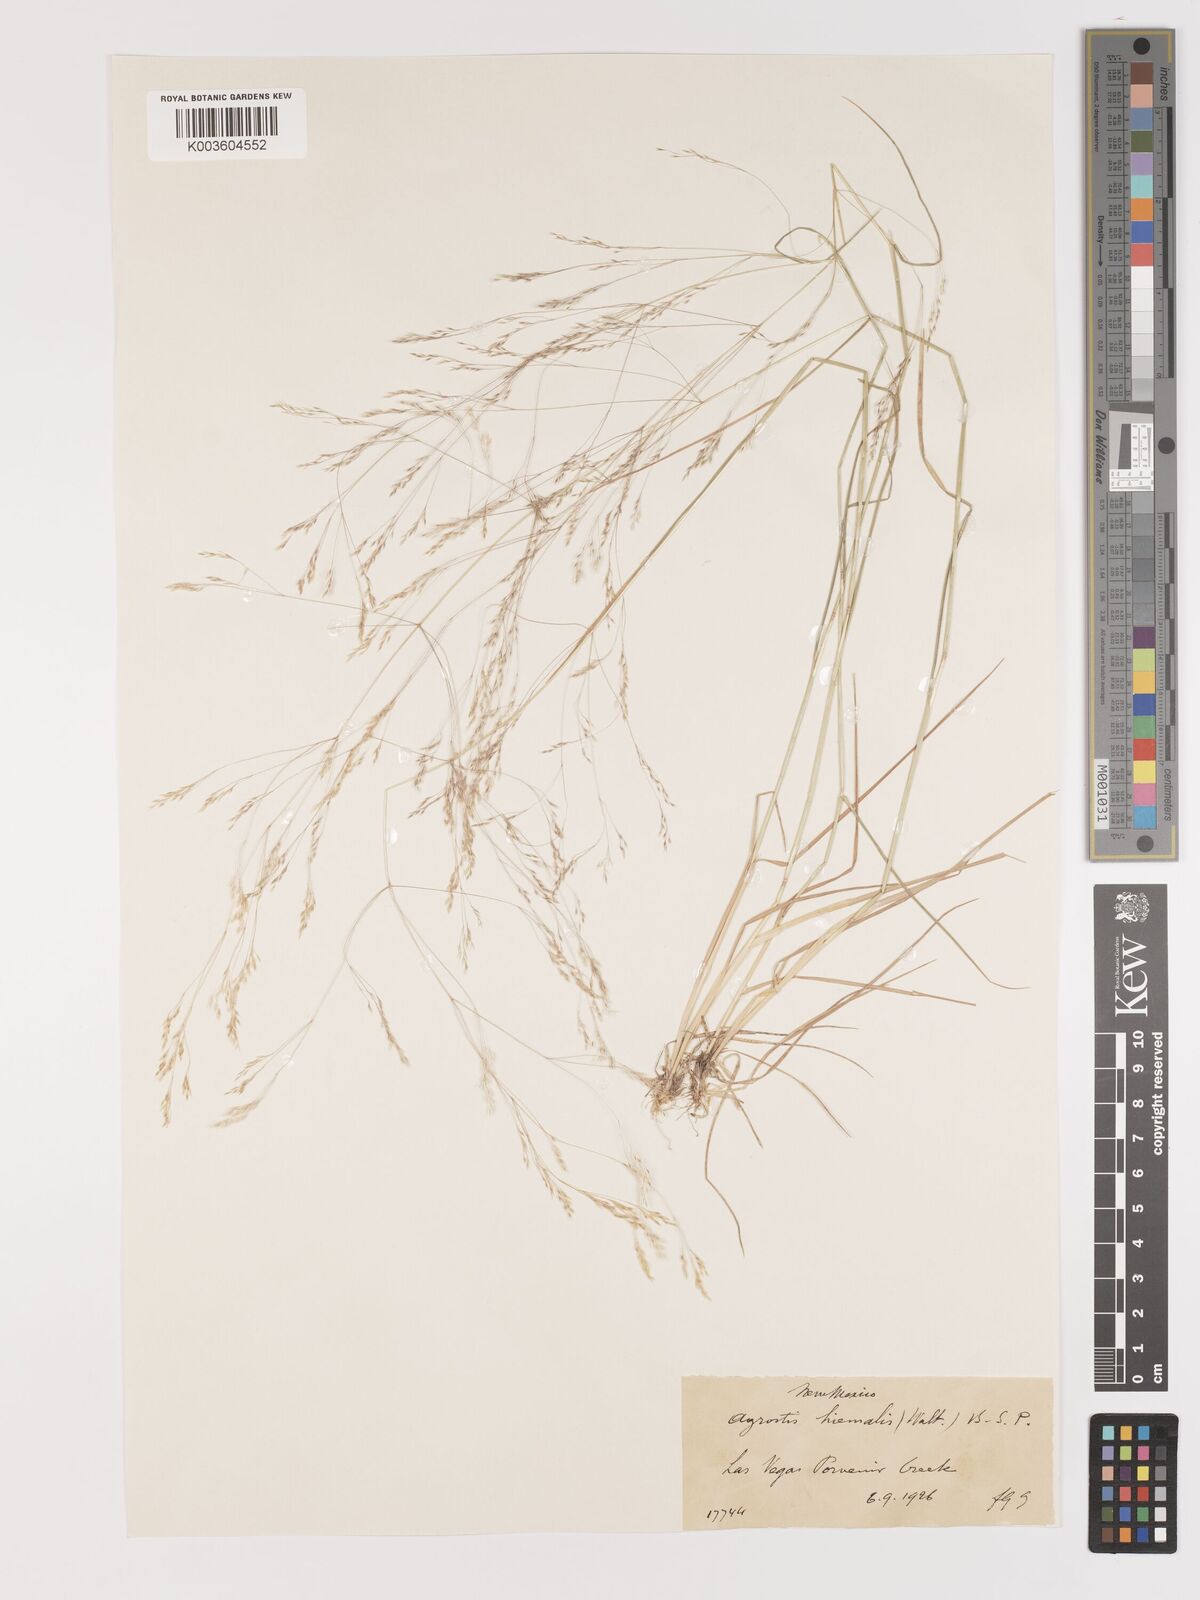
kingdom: Plantae
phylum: Tracheophyta
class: Liliopsida
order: Poales
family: Poaceae
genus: Agrostis
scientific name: Agrostis hyemalis
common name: Small bent
